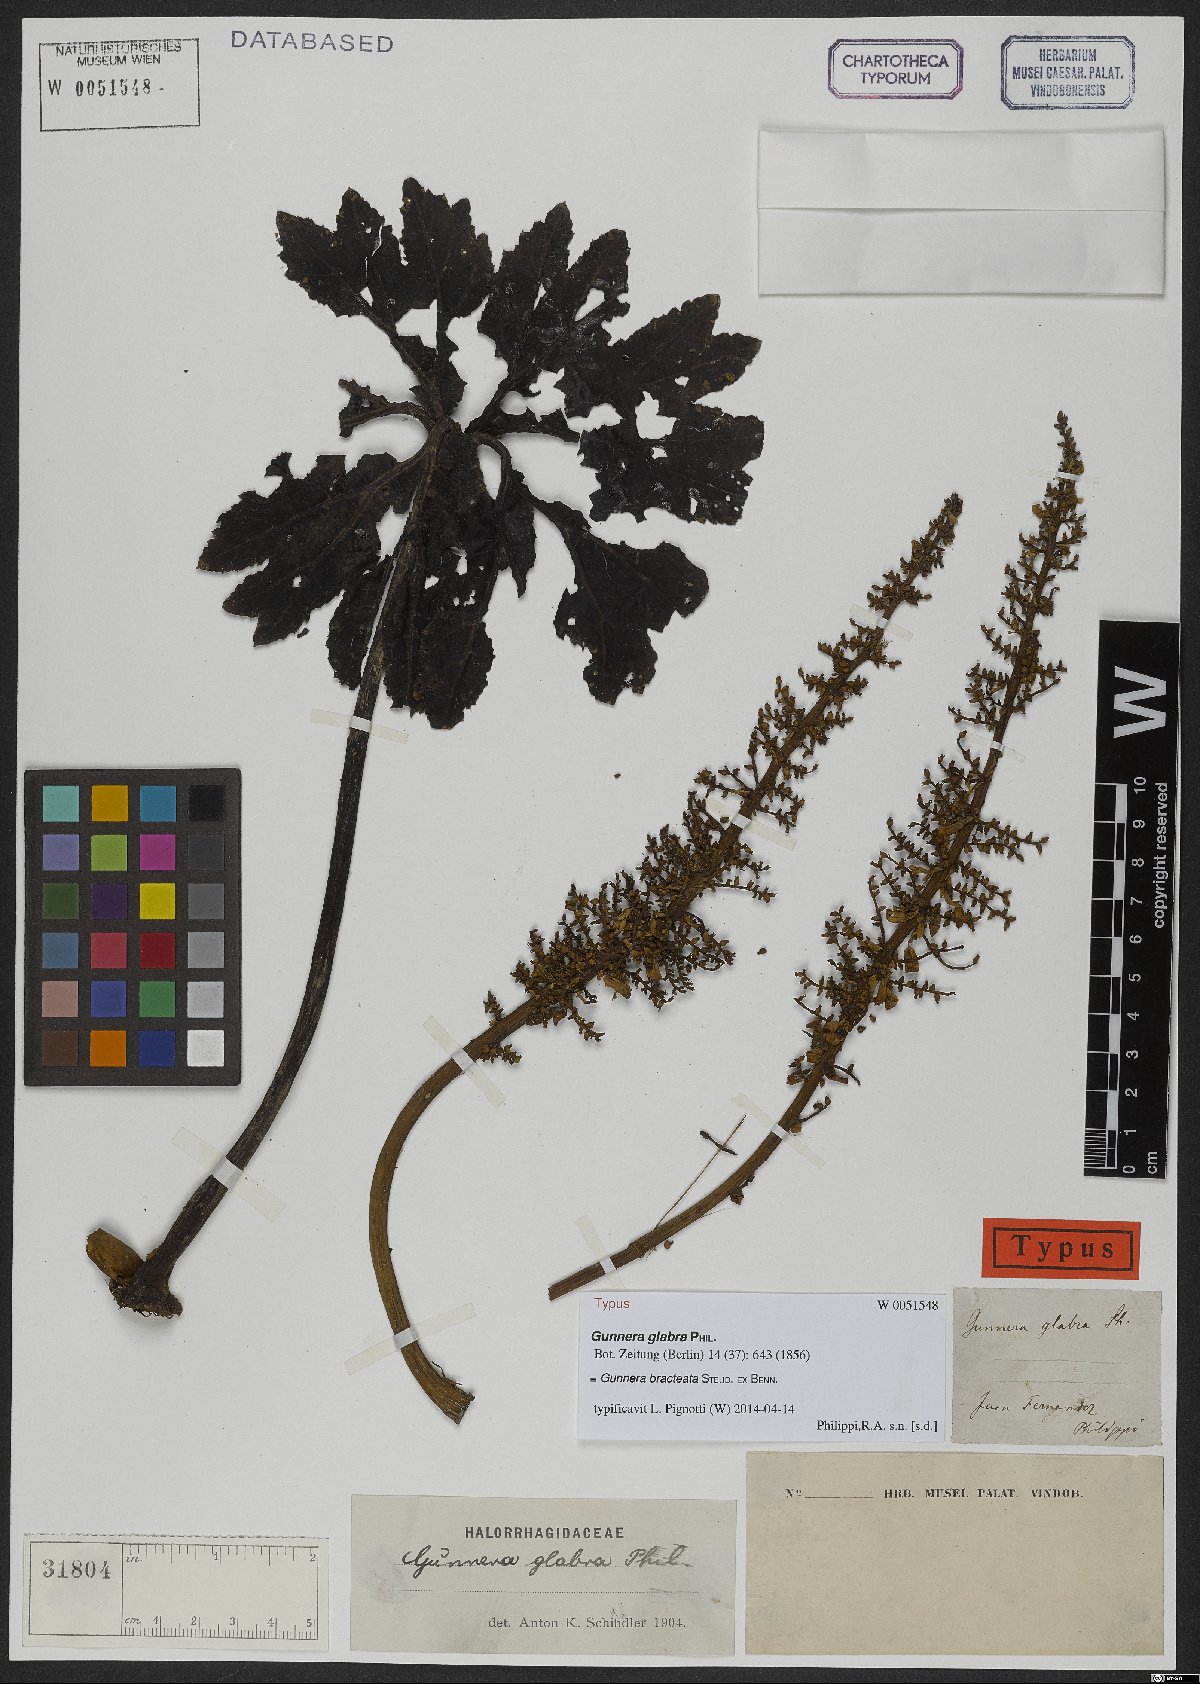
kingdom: Plantae
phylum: Tracheophyta
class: Magnoliopsida
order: Gunnerales
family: Gunneraceae
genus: Gunnera
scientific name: Gunnera bracteata
